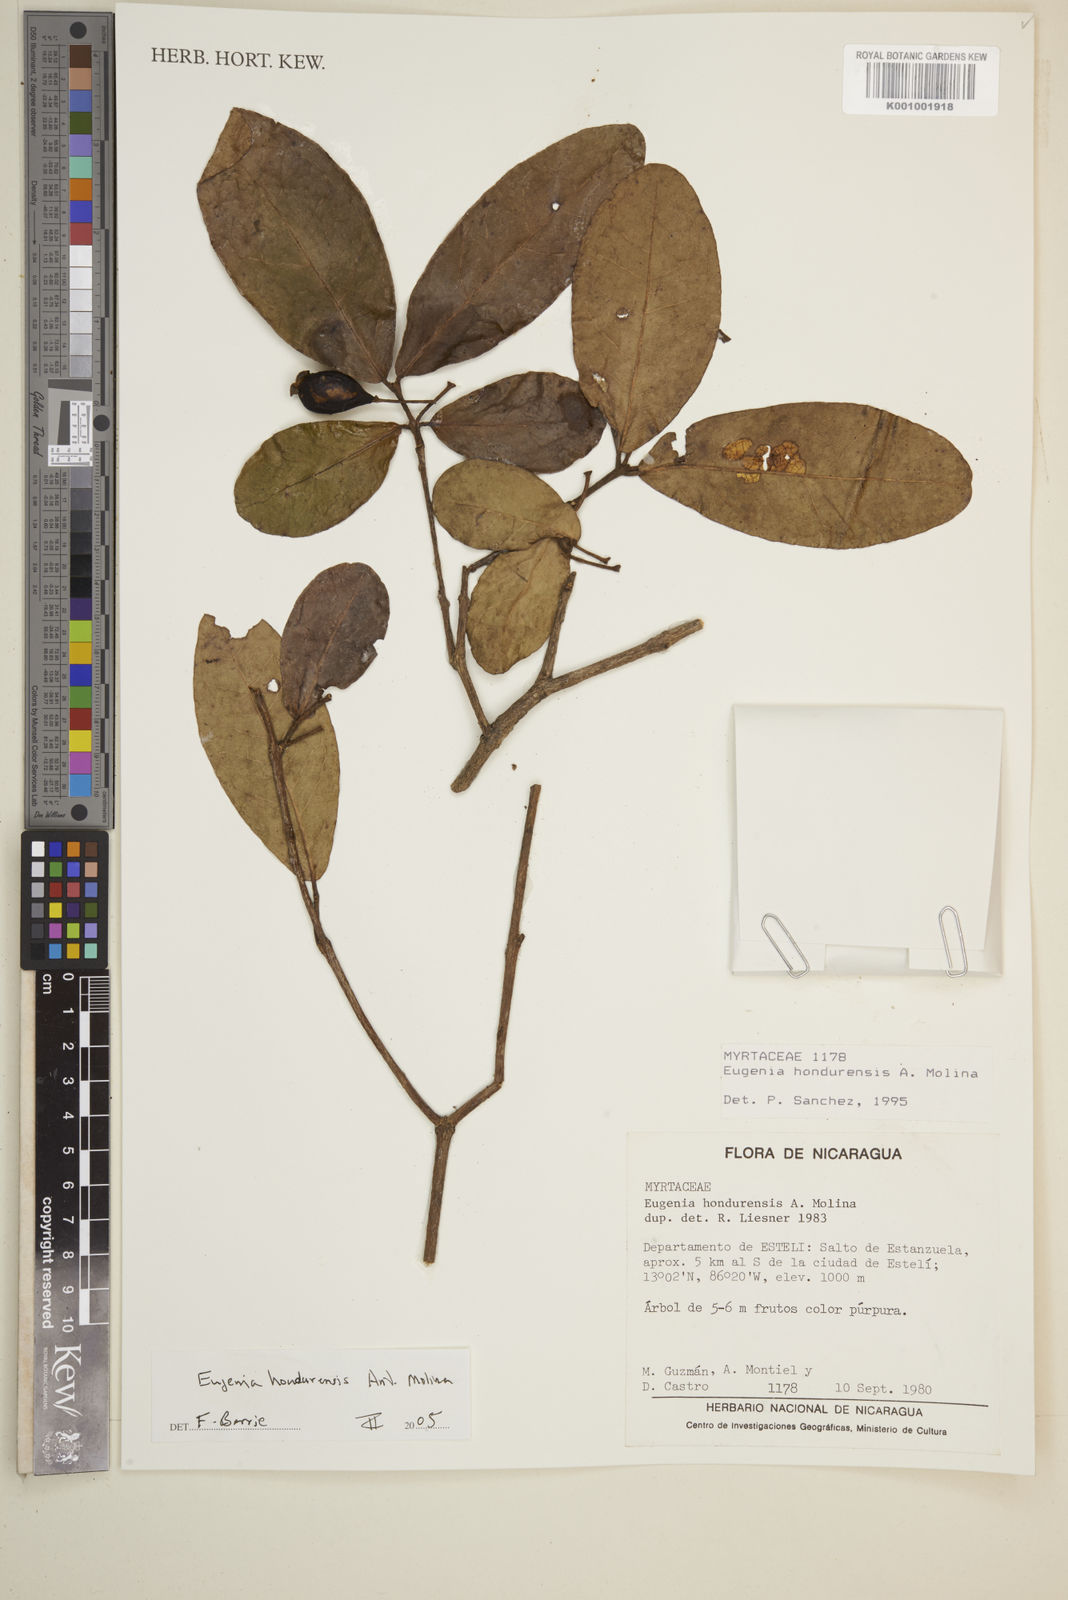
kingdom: Plantae
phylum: Tracheophyta
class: Magnoliopsida
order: Myrtales
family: Myrtaceae
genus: Eugenia
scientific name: Eugenia hondurensis
